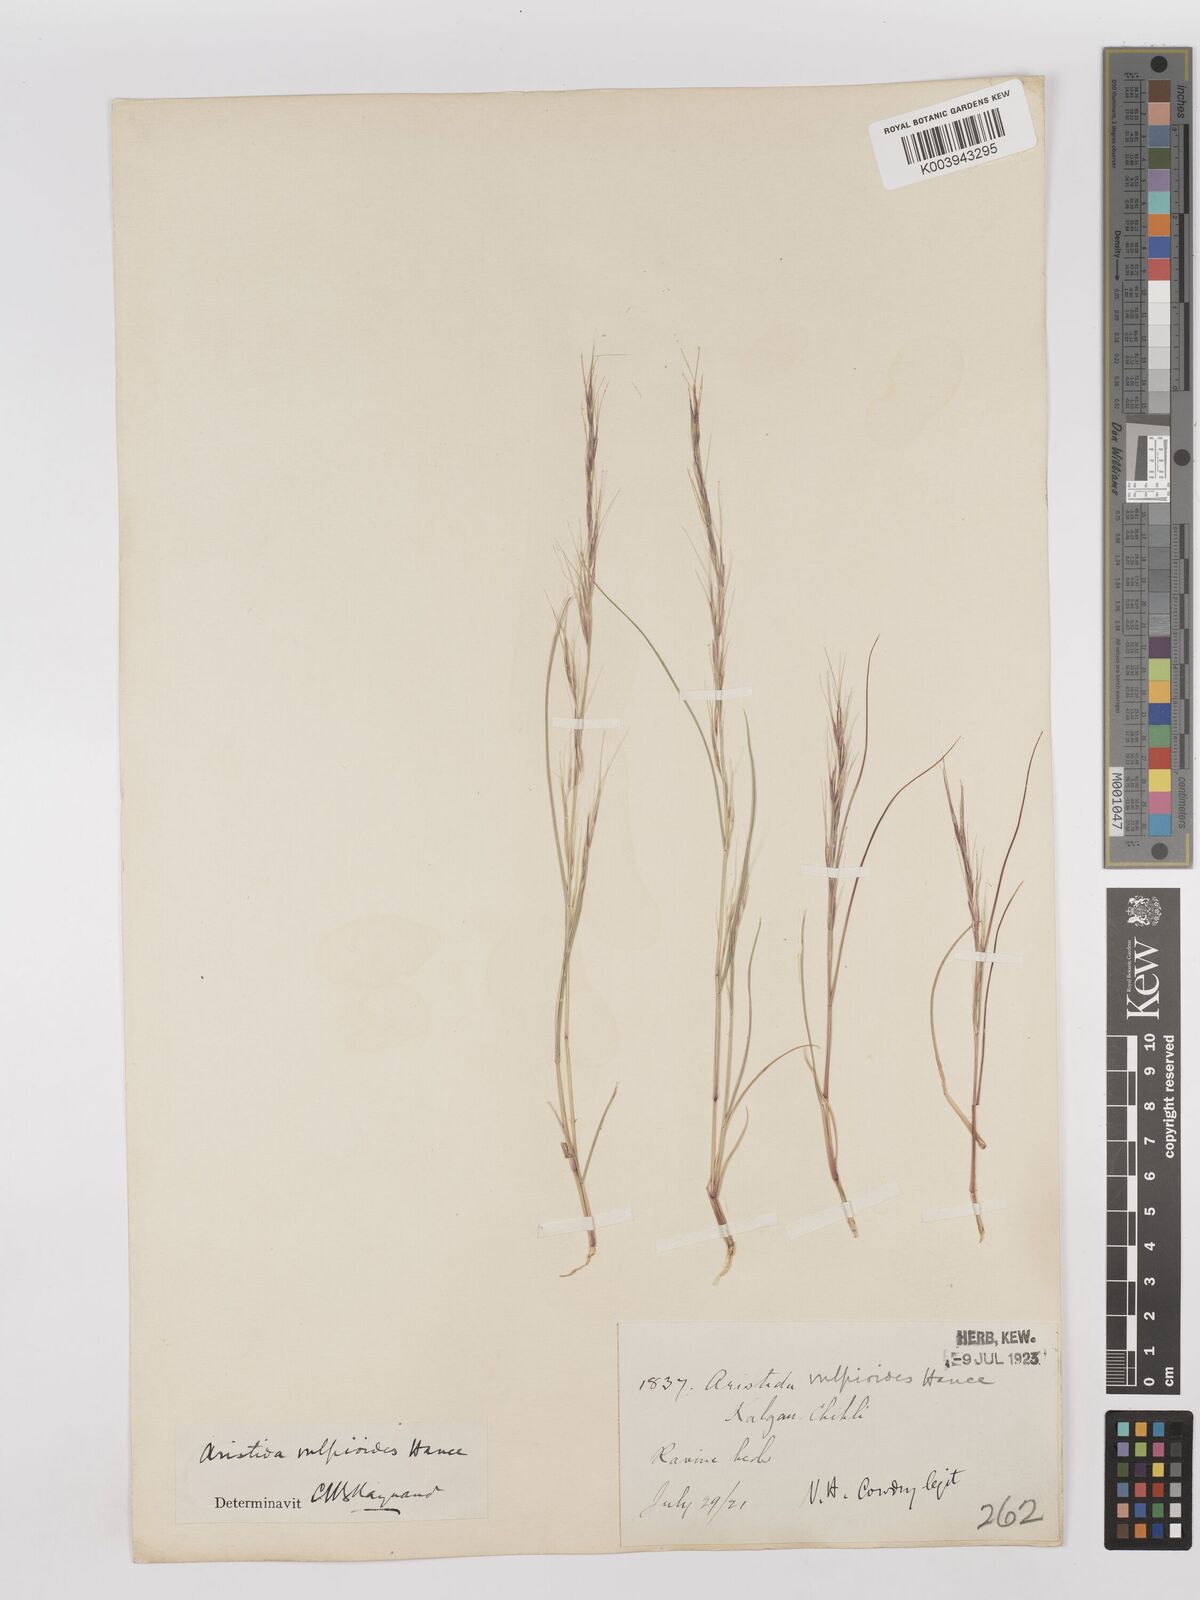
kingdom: Plantae
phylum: Tracheophyta
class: Liliopsida
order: Poales
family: Poaceae
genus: Aristida
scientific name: Aristida adscensionis
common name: Sixweeks threeawn
